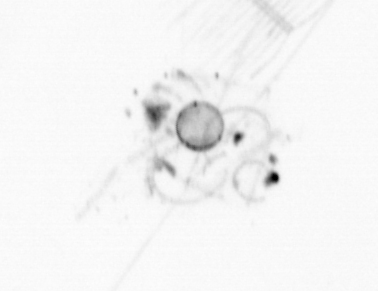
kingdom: Chromista
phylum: Ochrophyta
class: Bacillariophyceae
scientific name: Bacillariophyceae
